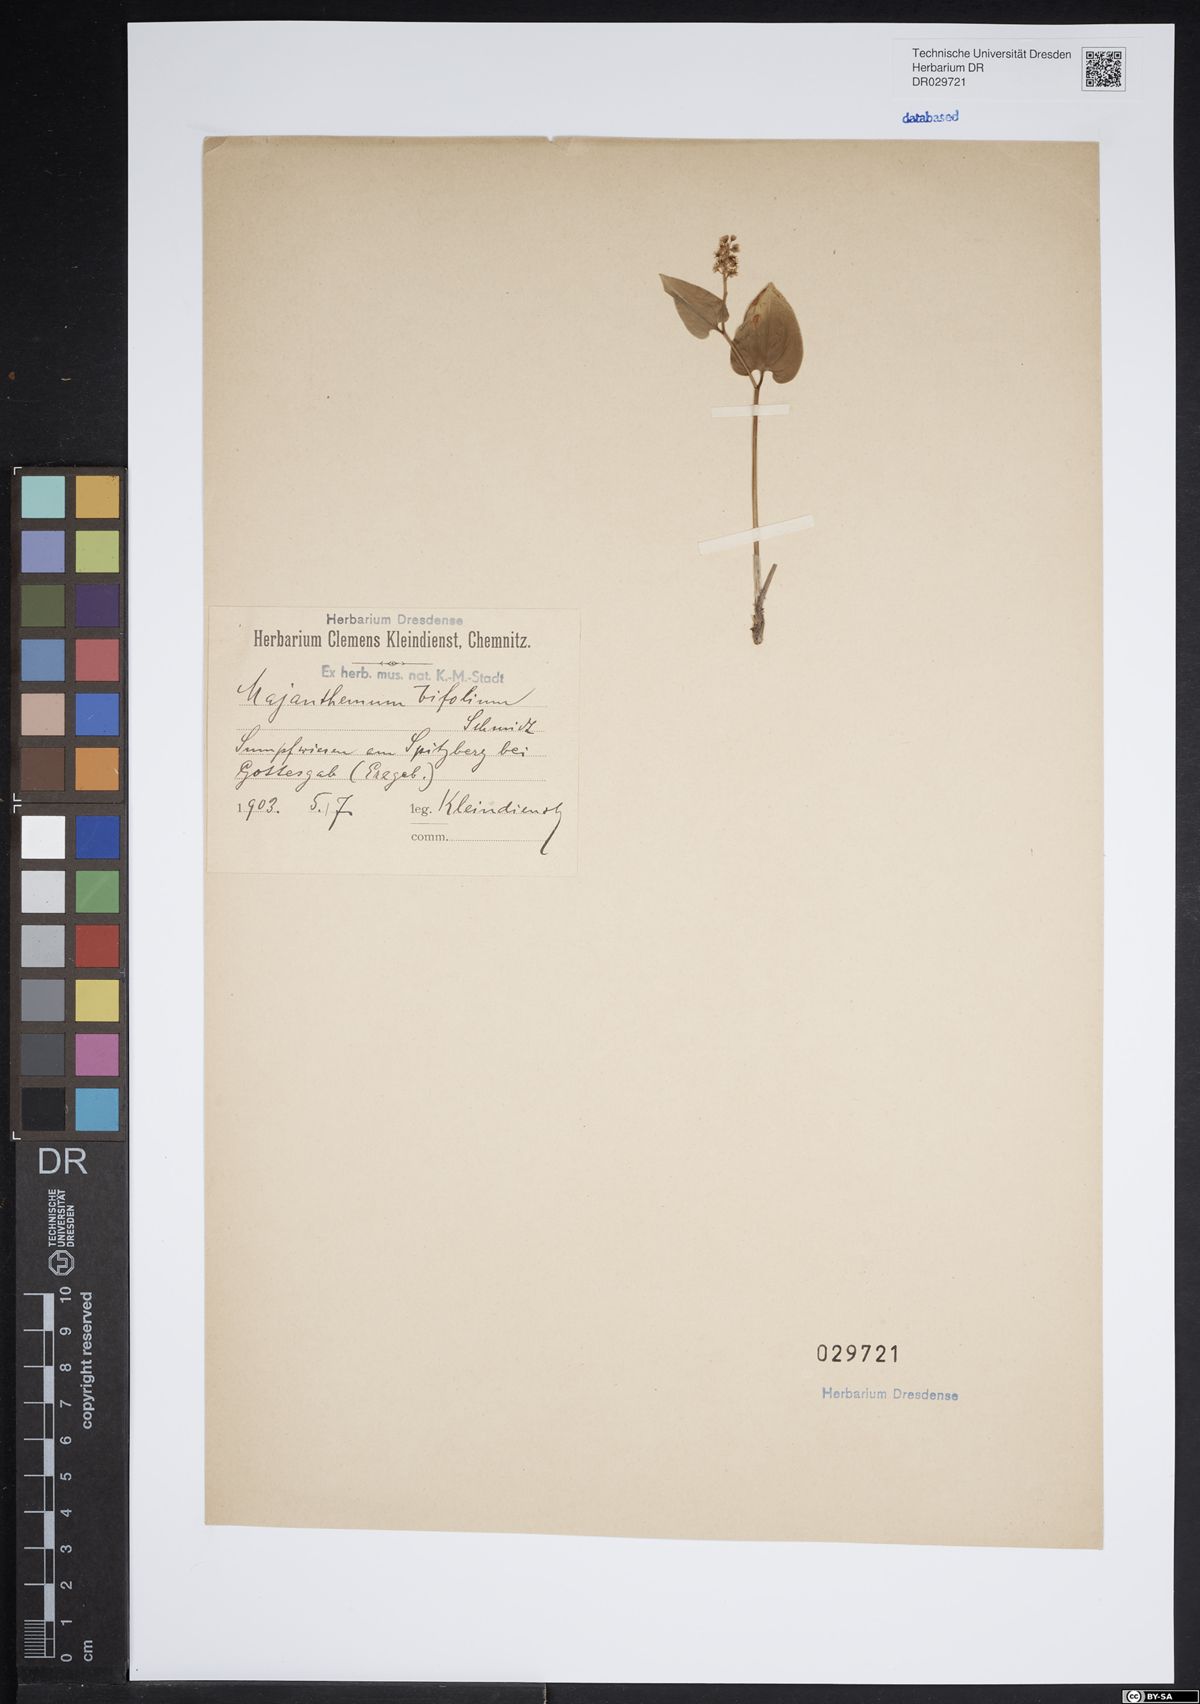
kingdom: Plantae
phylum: Tracheophyta
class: Liliopsida
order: Asparagales
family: Asparagaceae
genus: Maianthemum
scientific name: Maianthemum bifolium
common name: May lily
